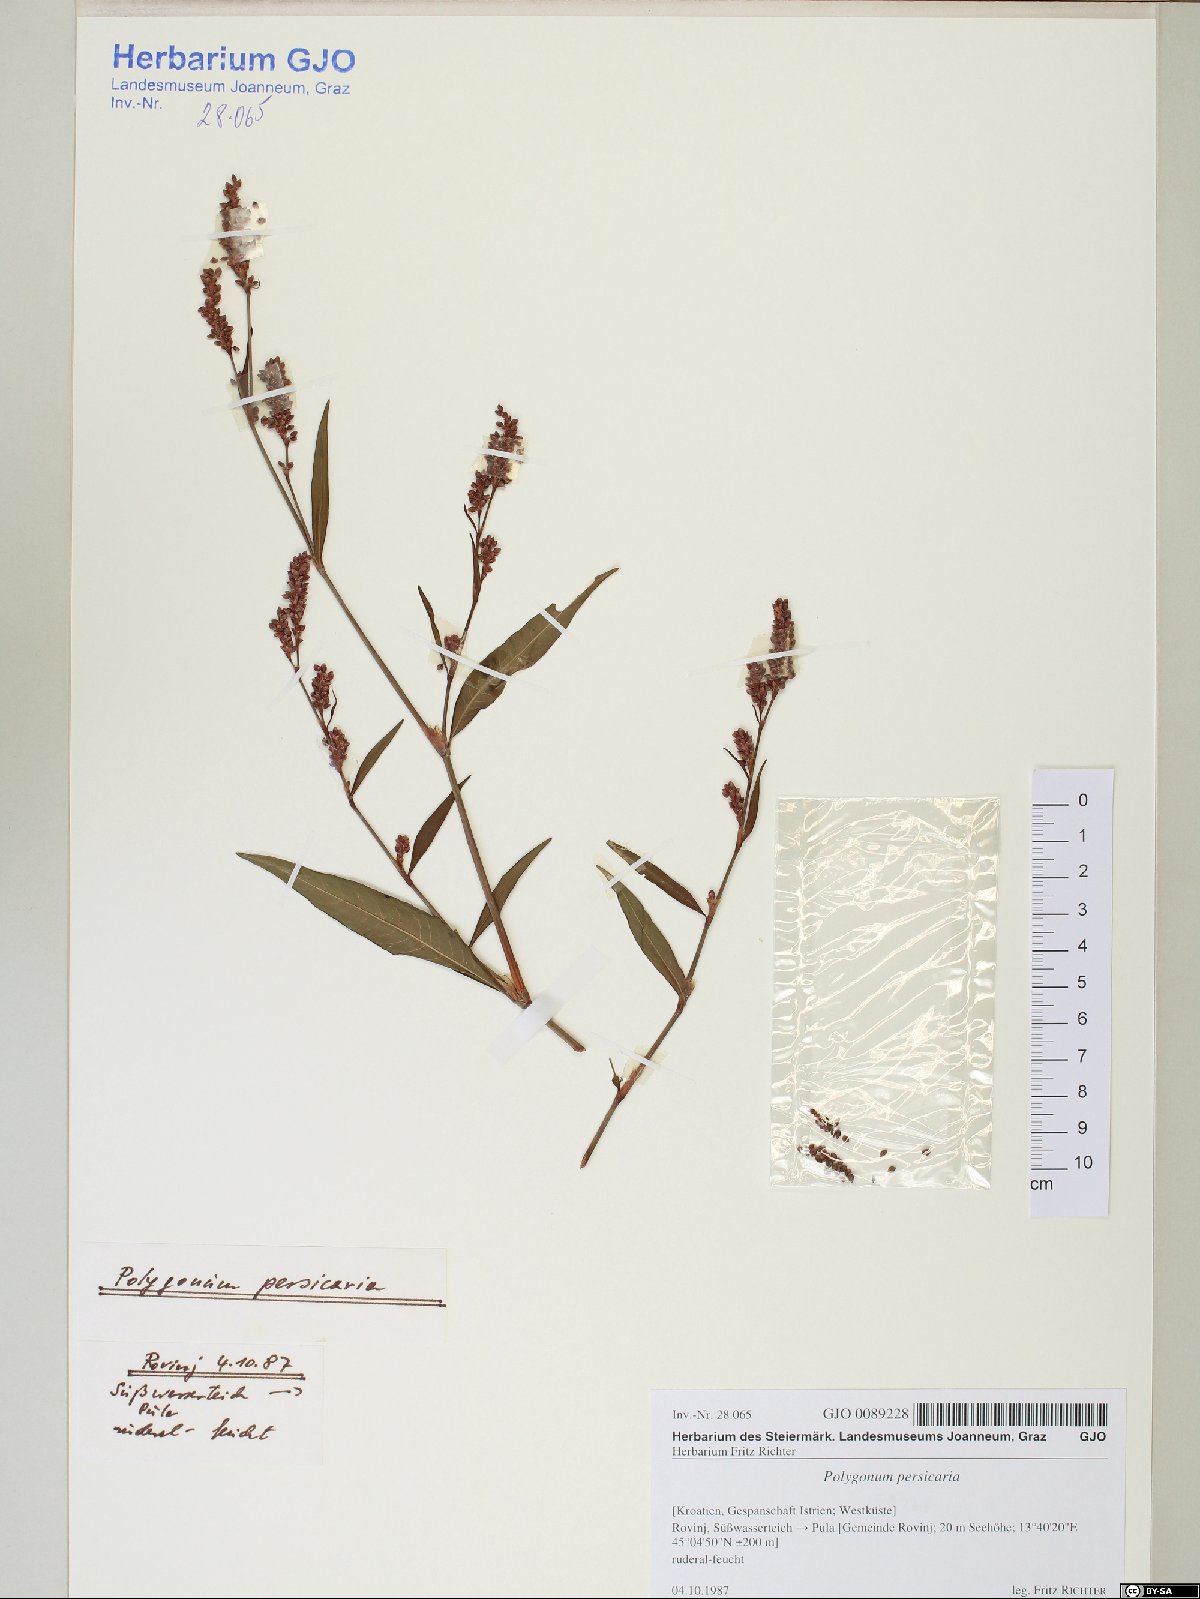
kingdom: Plantae
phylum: Tracheophyta
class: Magnoliopsida
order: Caryophyllales
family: Polygonaceae
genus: Persicaria
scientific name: Persicaria maculosa
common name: Redshank
